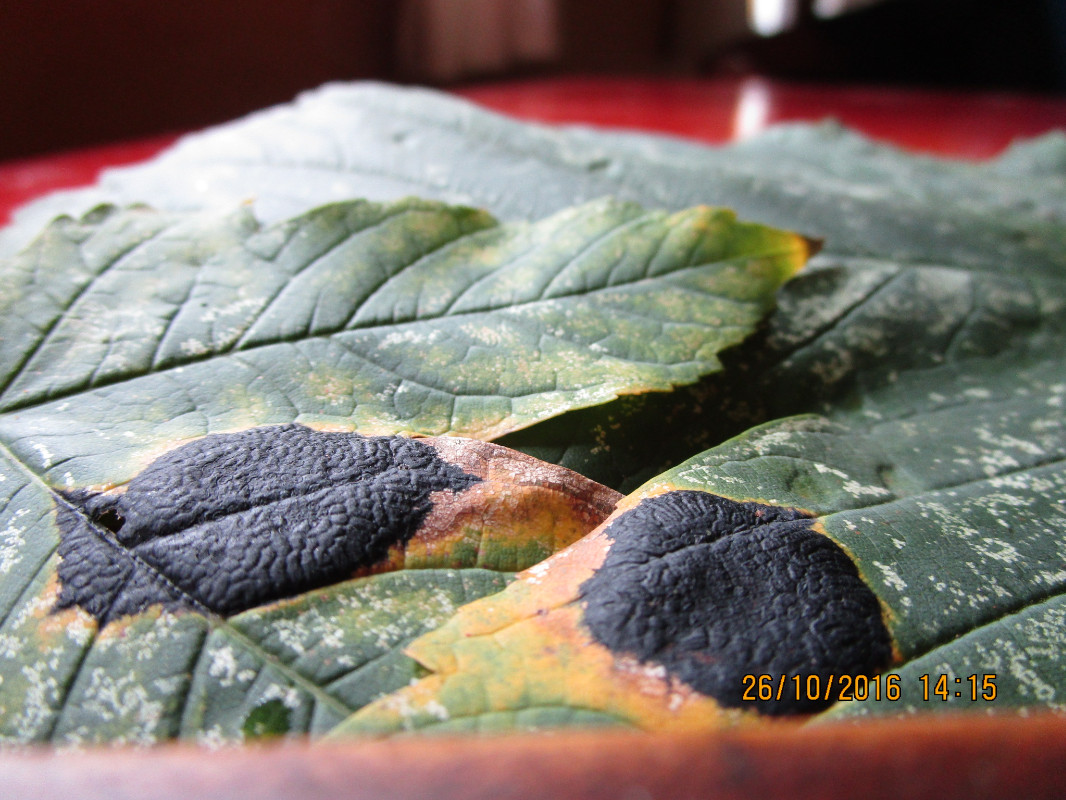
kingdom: Fungi
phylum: Ascomycota
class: Leotiomycetes
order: Rhytismatales
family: Rhytismataceae
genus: Rhytisma
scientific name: Rhytisma acerinum
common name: ahorn-rynkeplet
